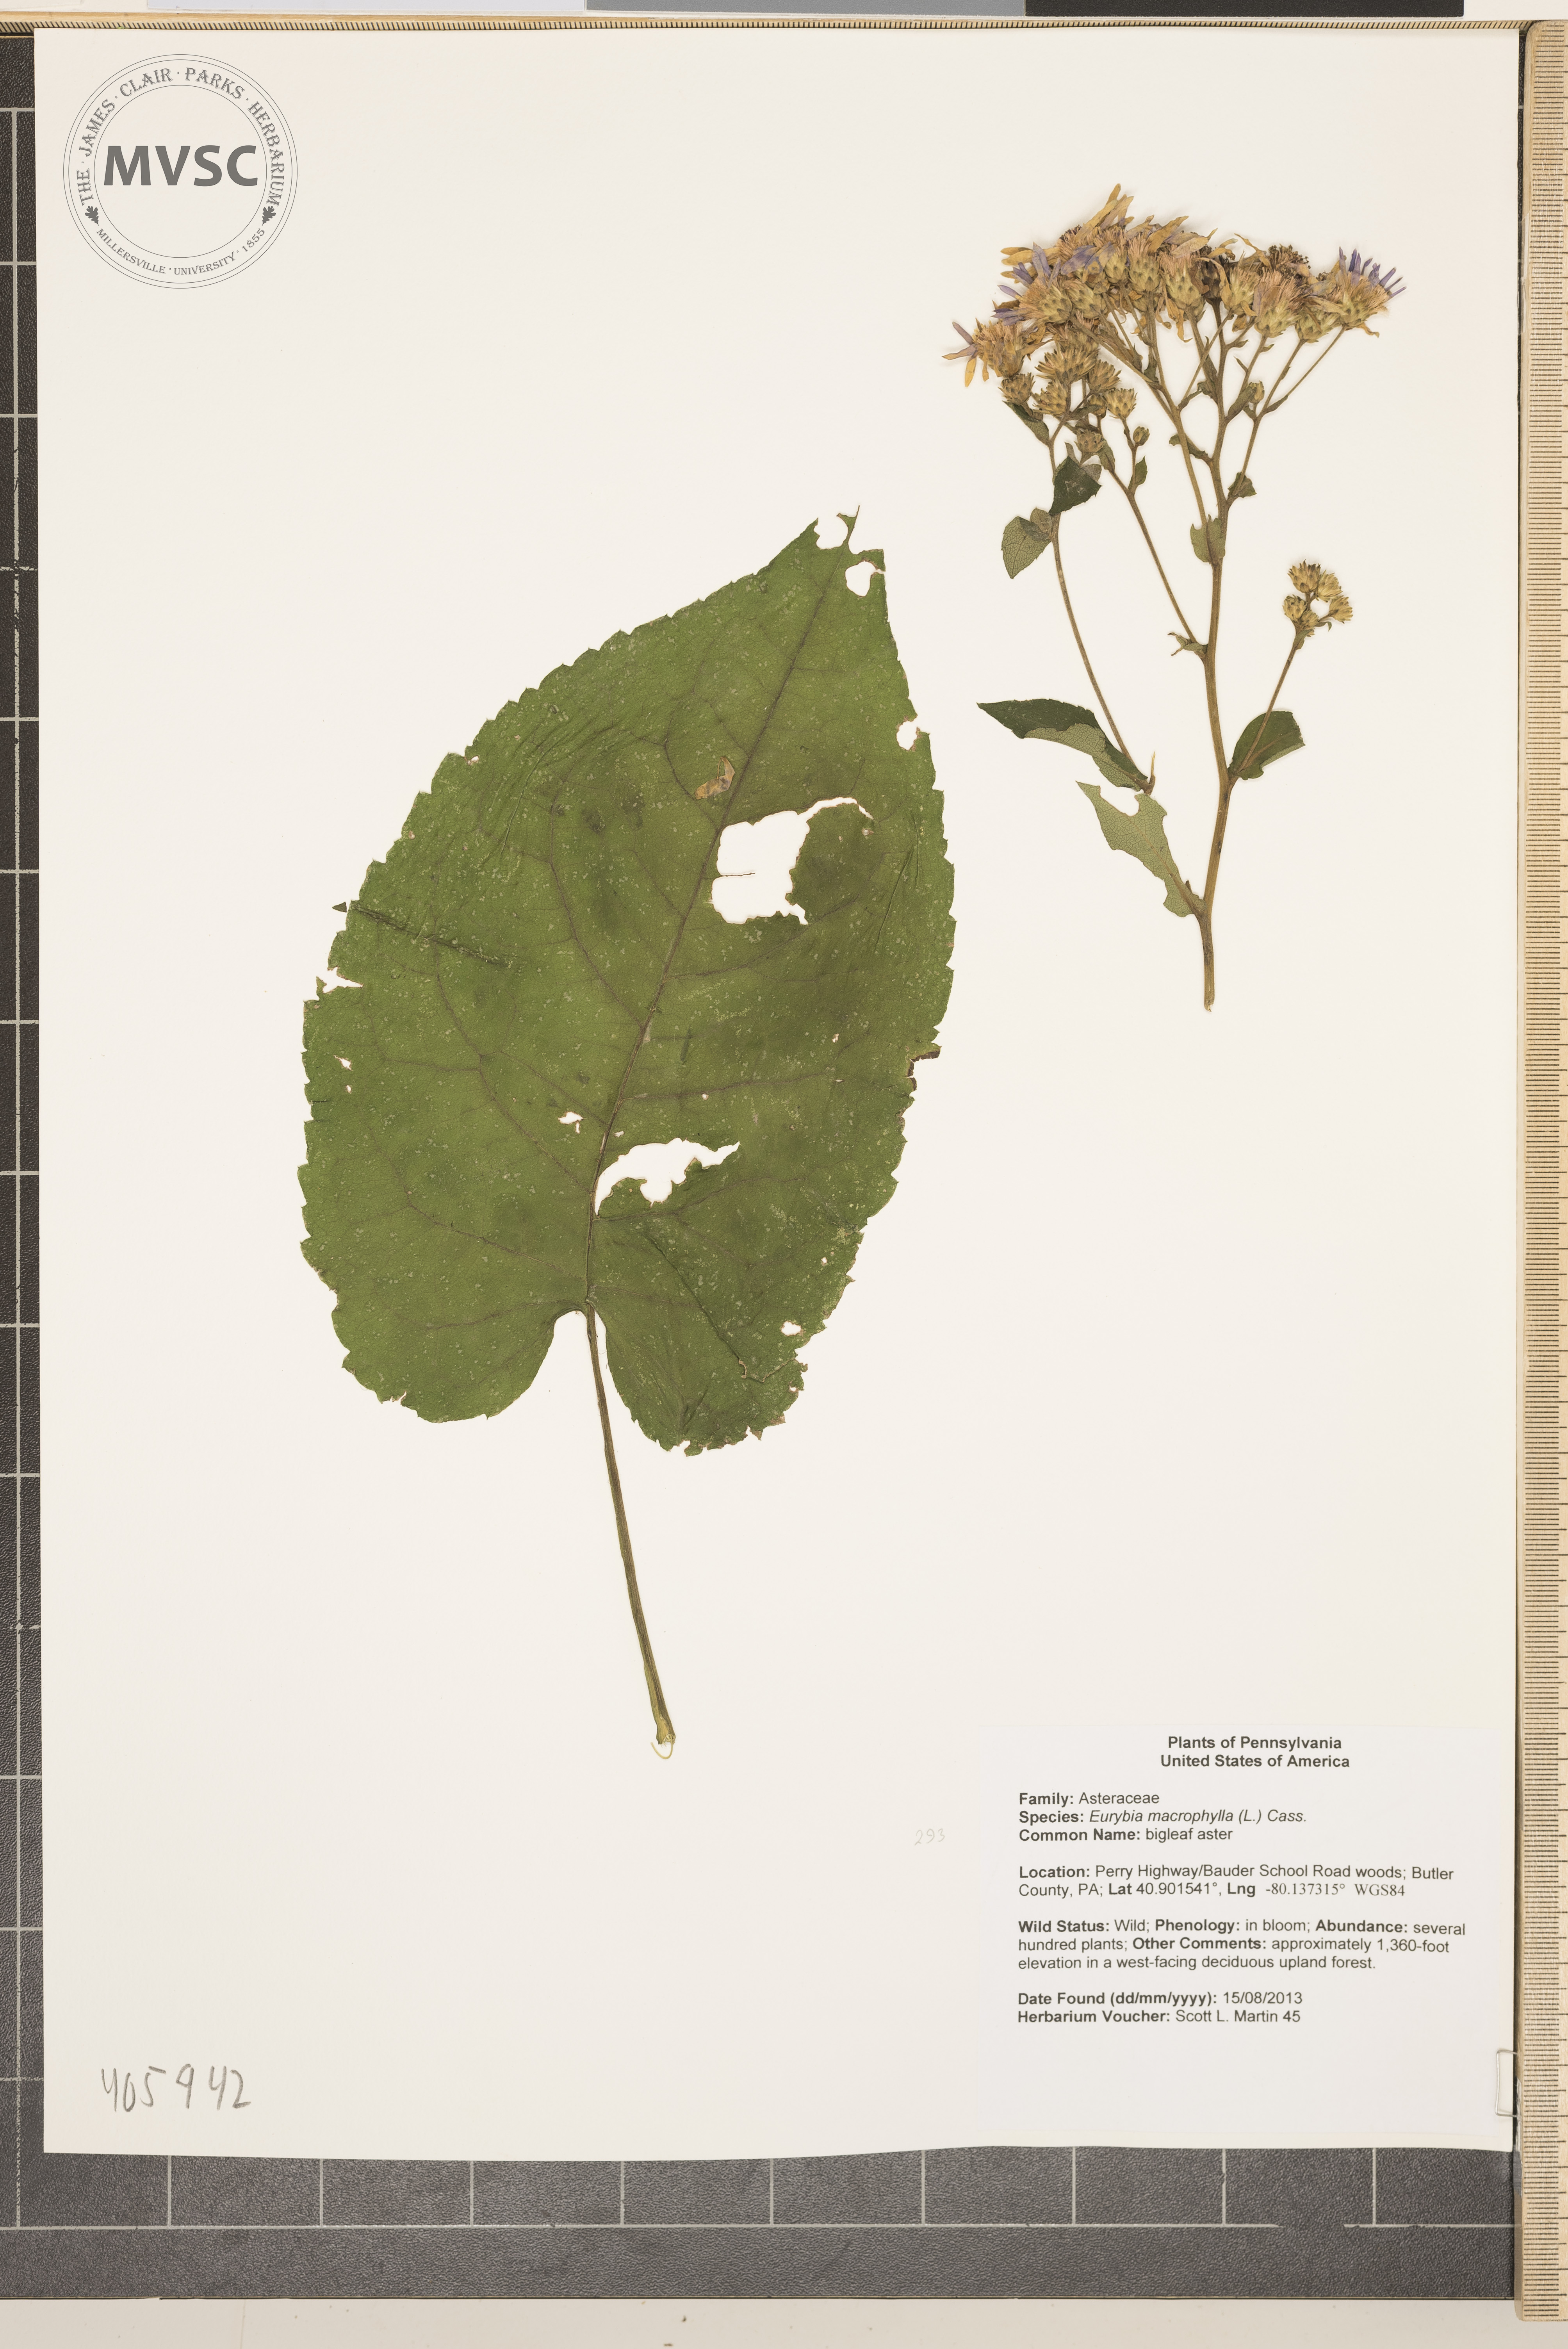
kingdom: Plantae
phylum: Tracheophyta
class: Magnoliopsida
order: Asterales
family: Asteraceae
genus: Eurybia
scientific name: Eurybia macrophylla
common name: bigleaf aster
